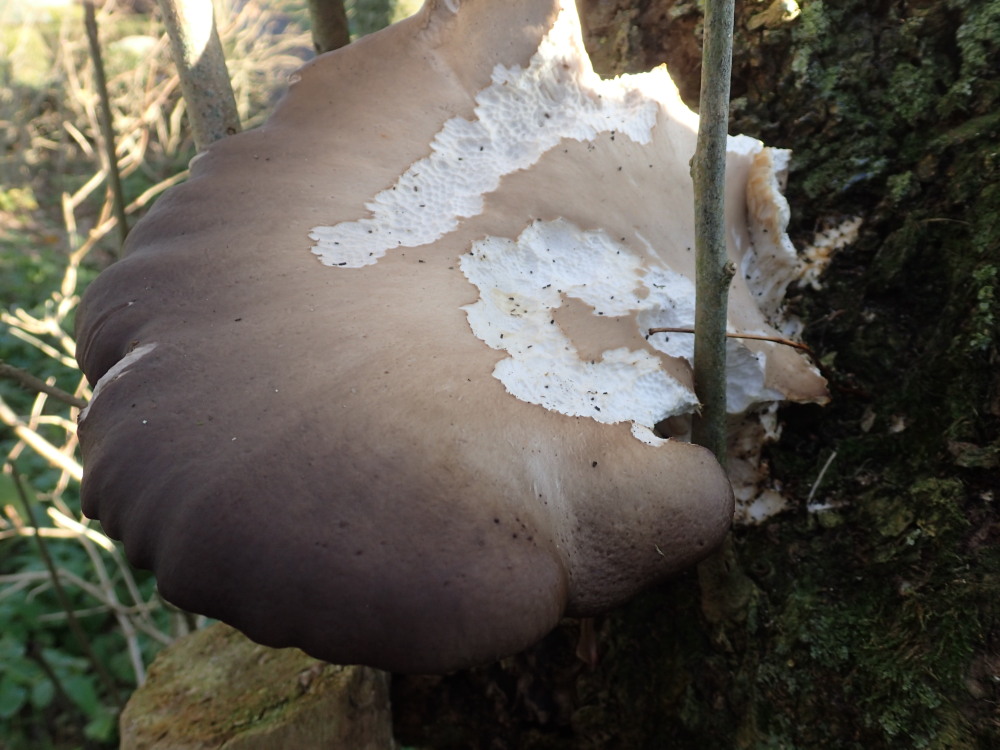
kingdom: Fungi
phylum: Basidiomycota
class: Agaricomycetes
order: Agaricales
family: Pleurotaceae
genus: Pleurotus
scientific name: Pleurotus ostreatus
